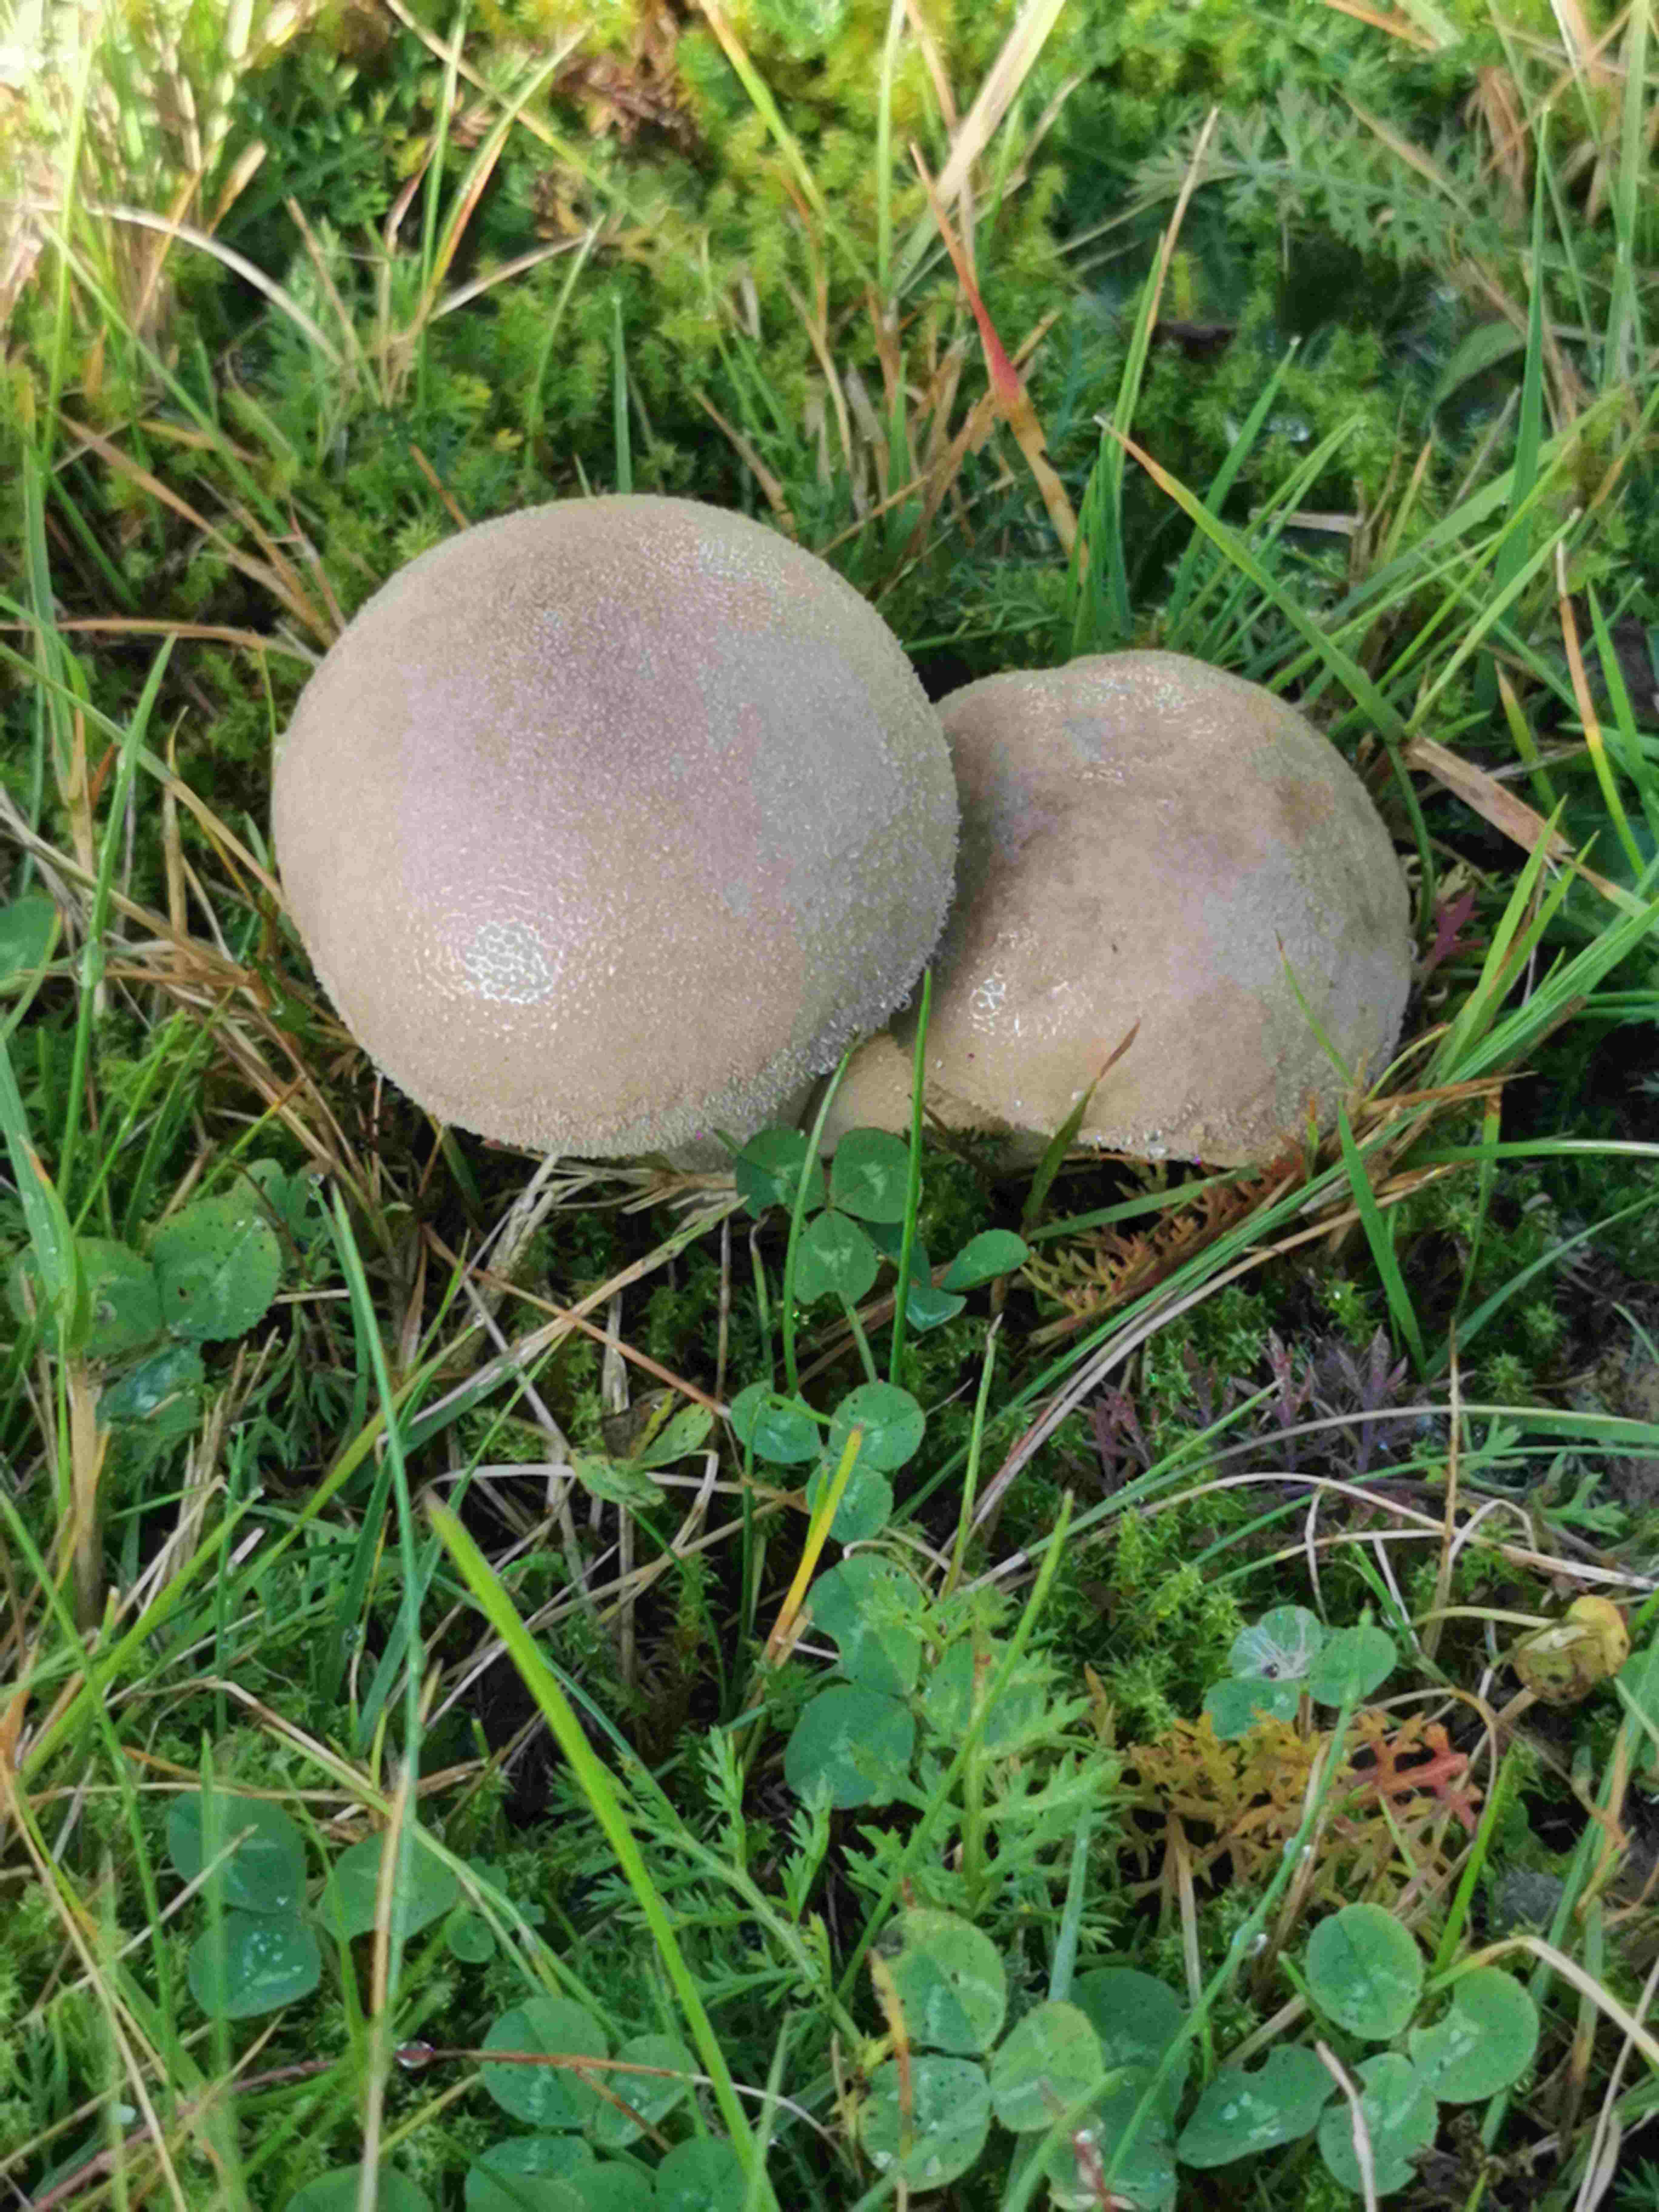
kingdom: Fungi
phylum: Basidiomycota
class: Agaricomycetes
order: Agaricales
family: Lycoperdaceae
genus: Lycoperdon
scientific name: Lycoperdon lividum
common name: mark-støvbold
